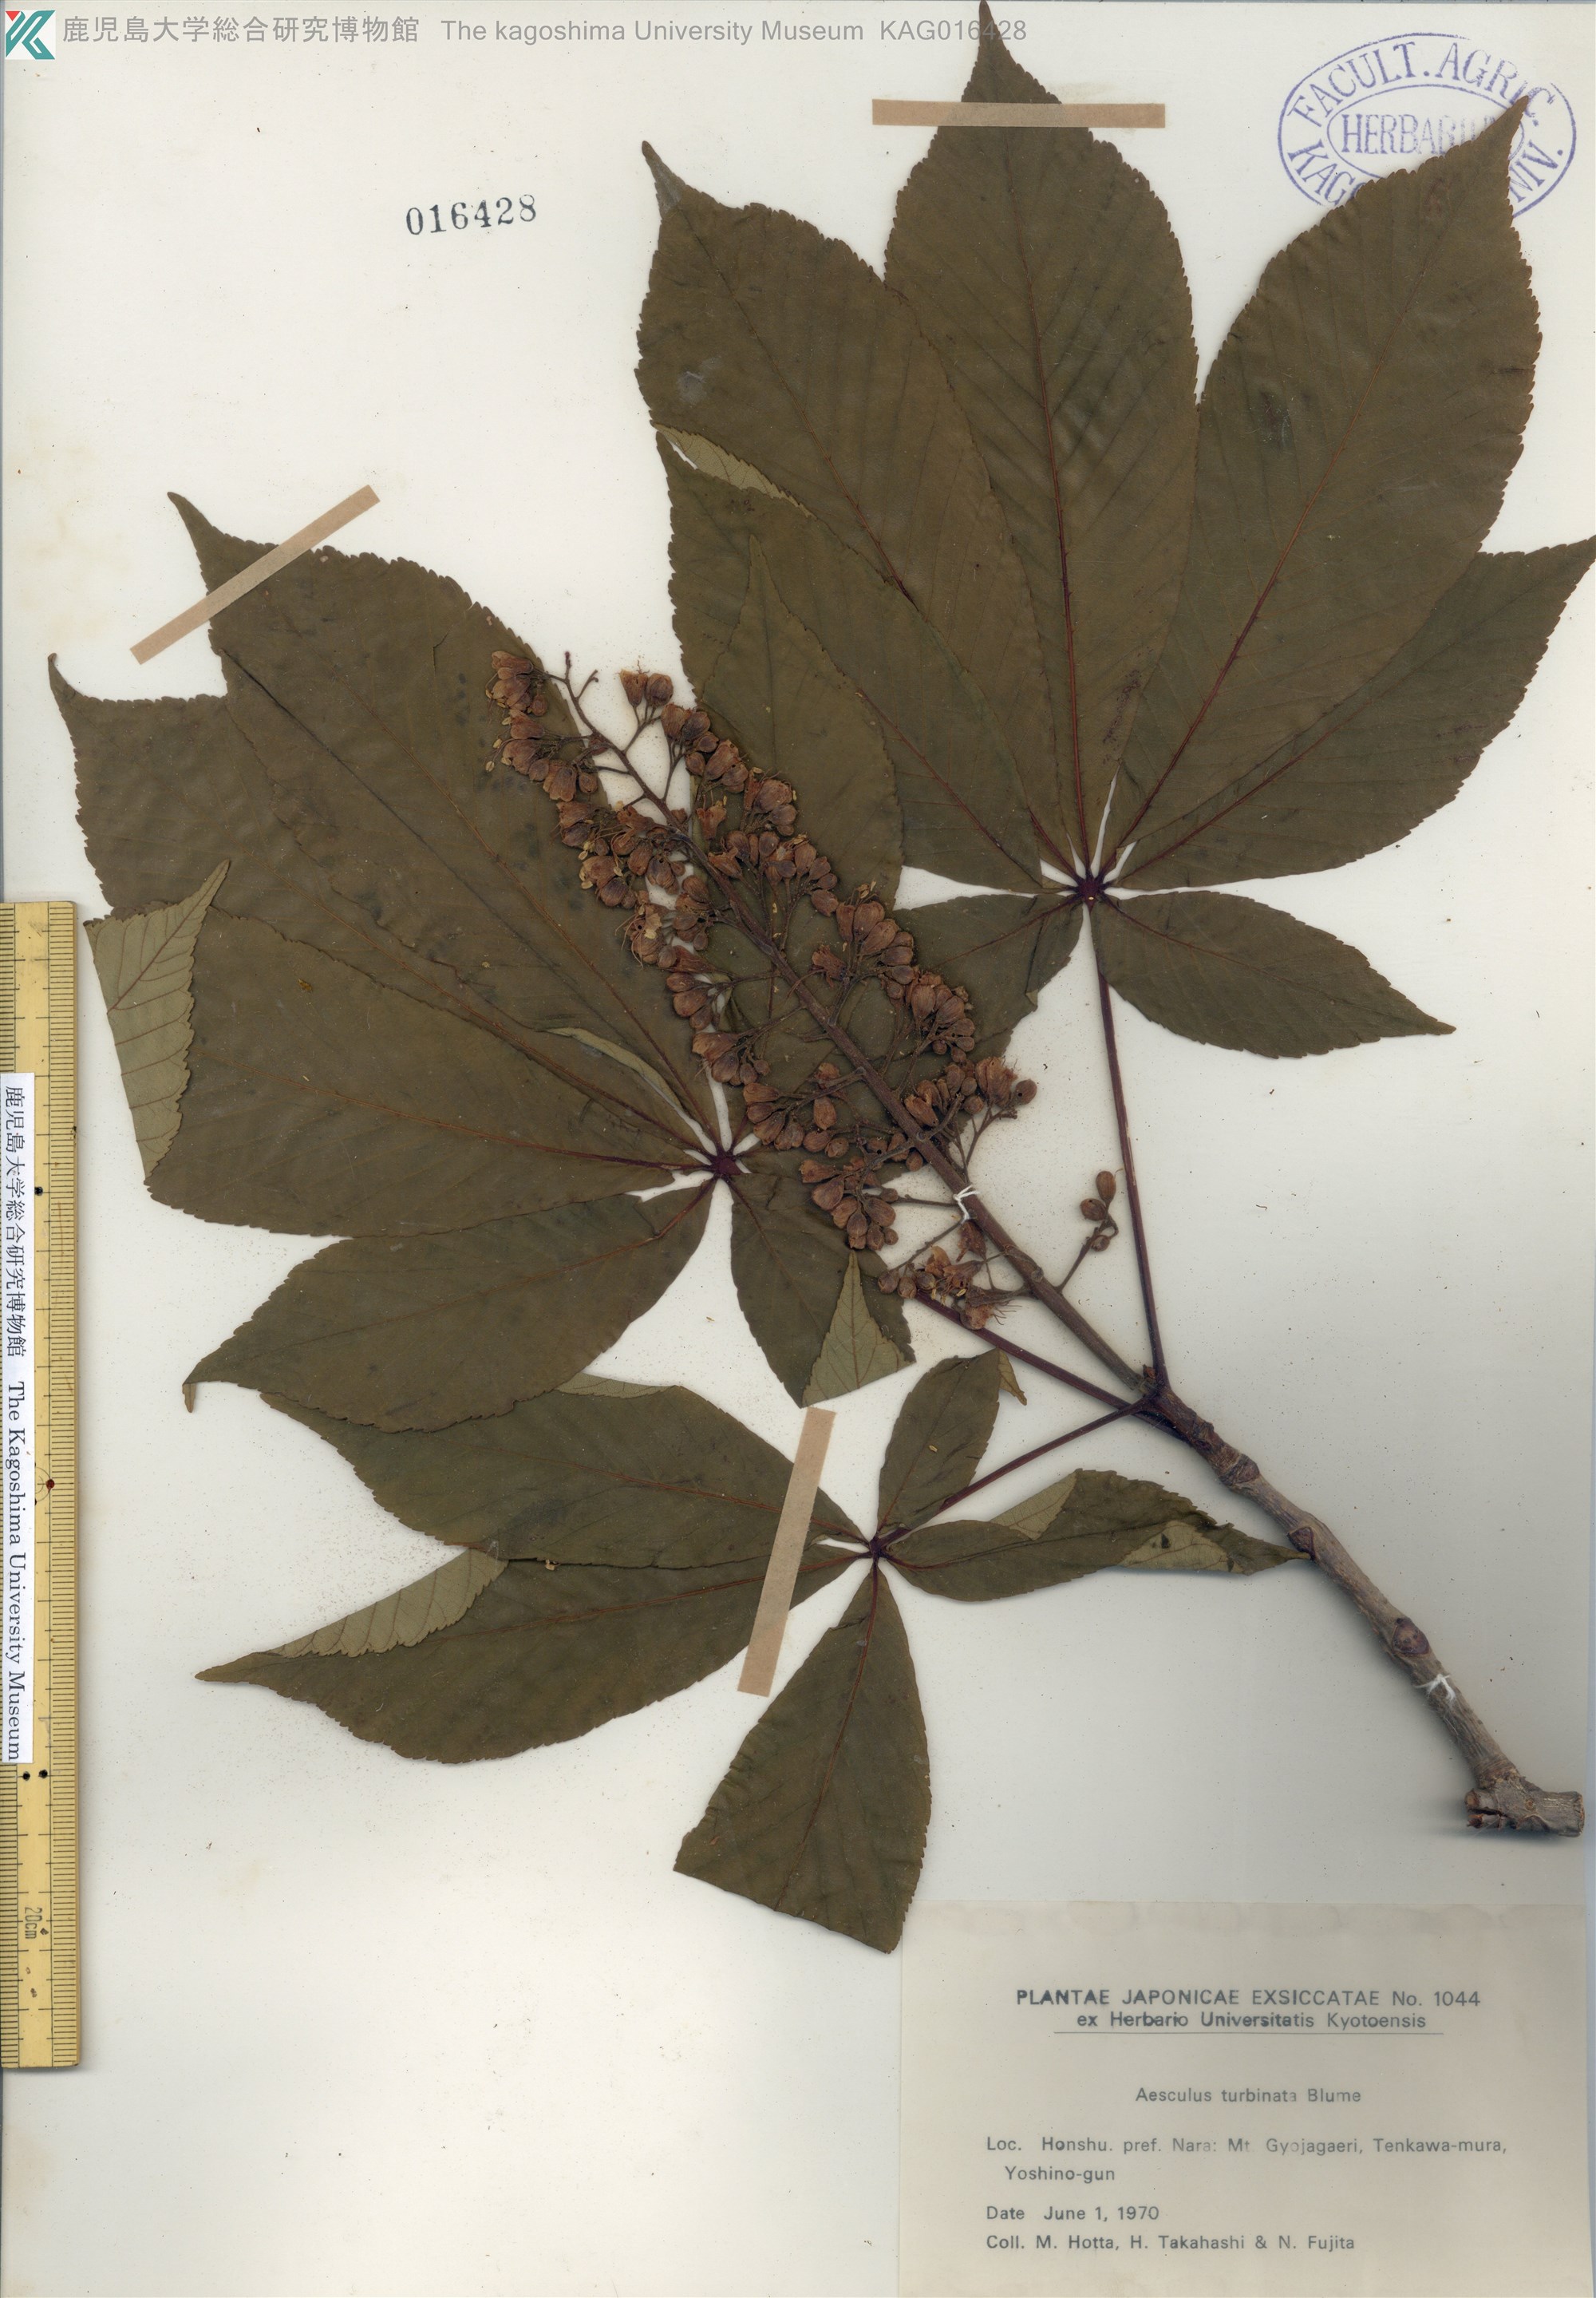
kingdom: Plantae
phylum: Tracheophyta
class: Magnoliopsida
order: Sapindales
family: Sapindaceae
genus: Aesculus
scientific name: Aesculus turbinata
